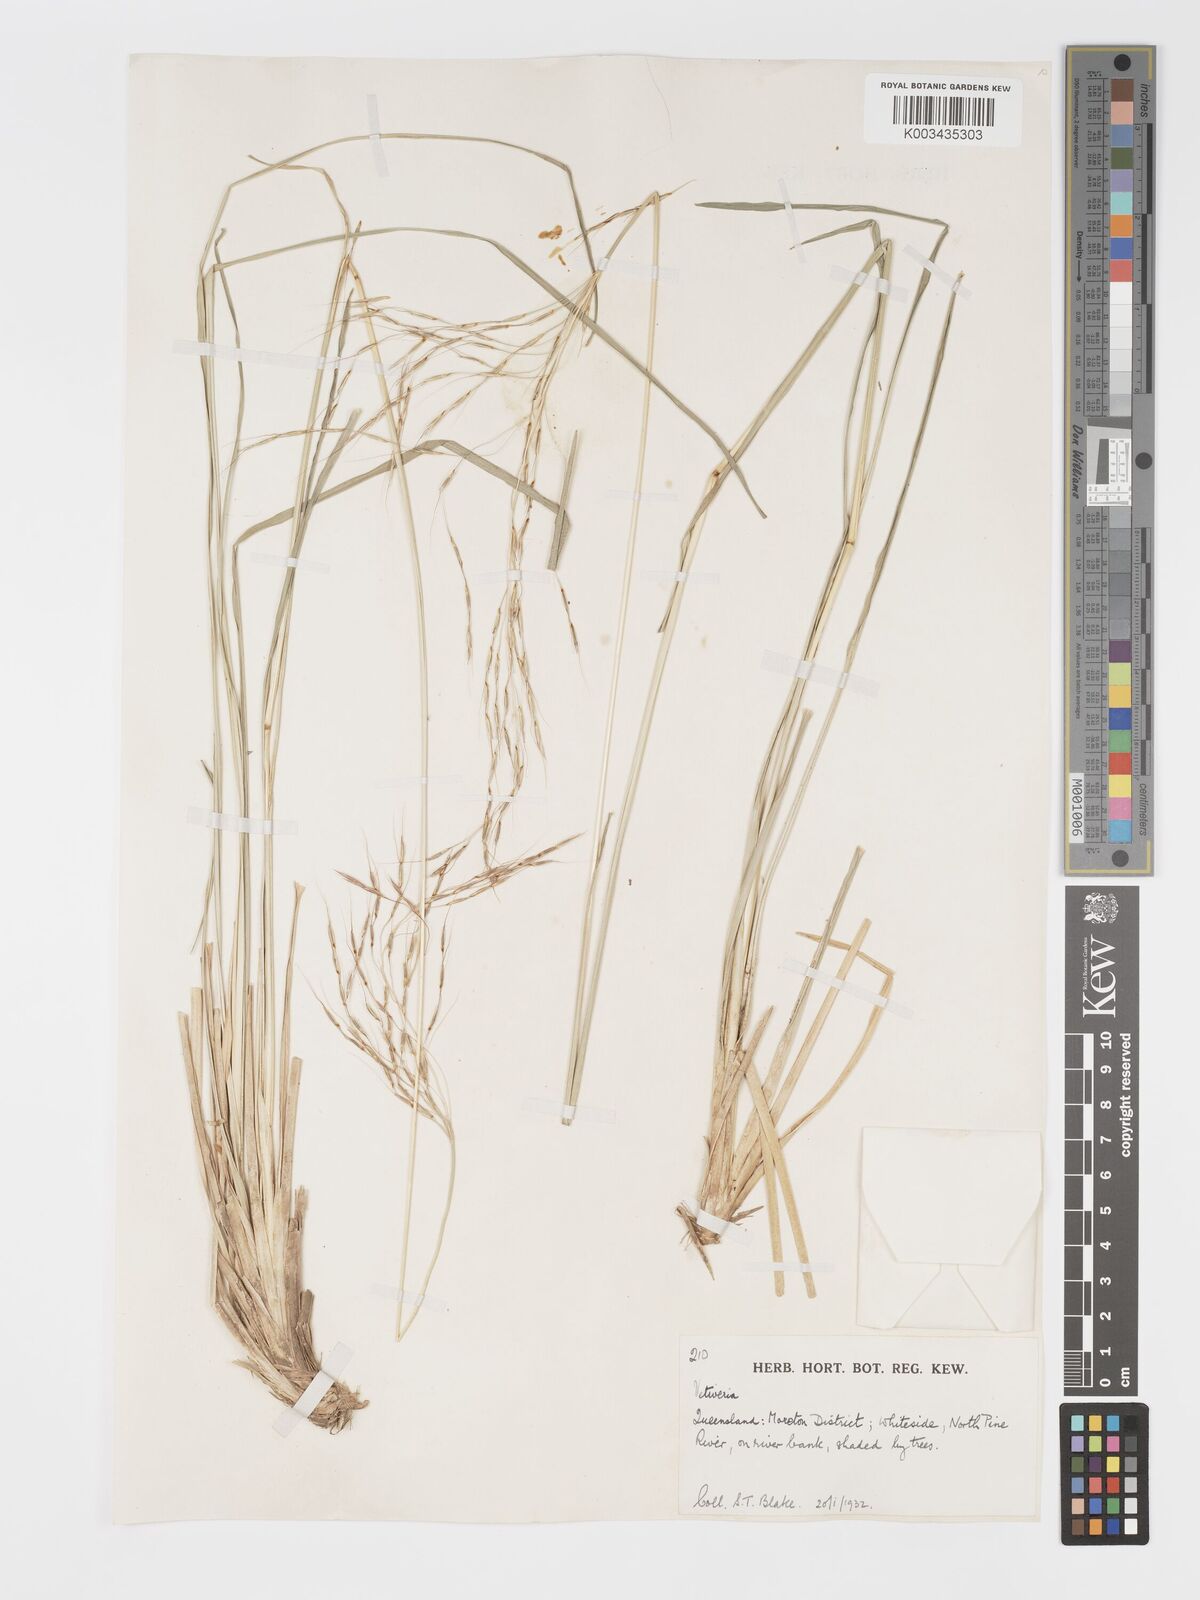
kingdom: Plantae
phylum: Tracheophyta
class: Liliopsida
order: Poales
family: Poaceae
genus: Chrysopogon
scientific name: Chrysopogon filipes
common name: Australian vetiver
